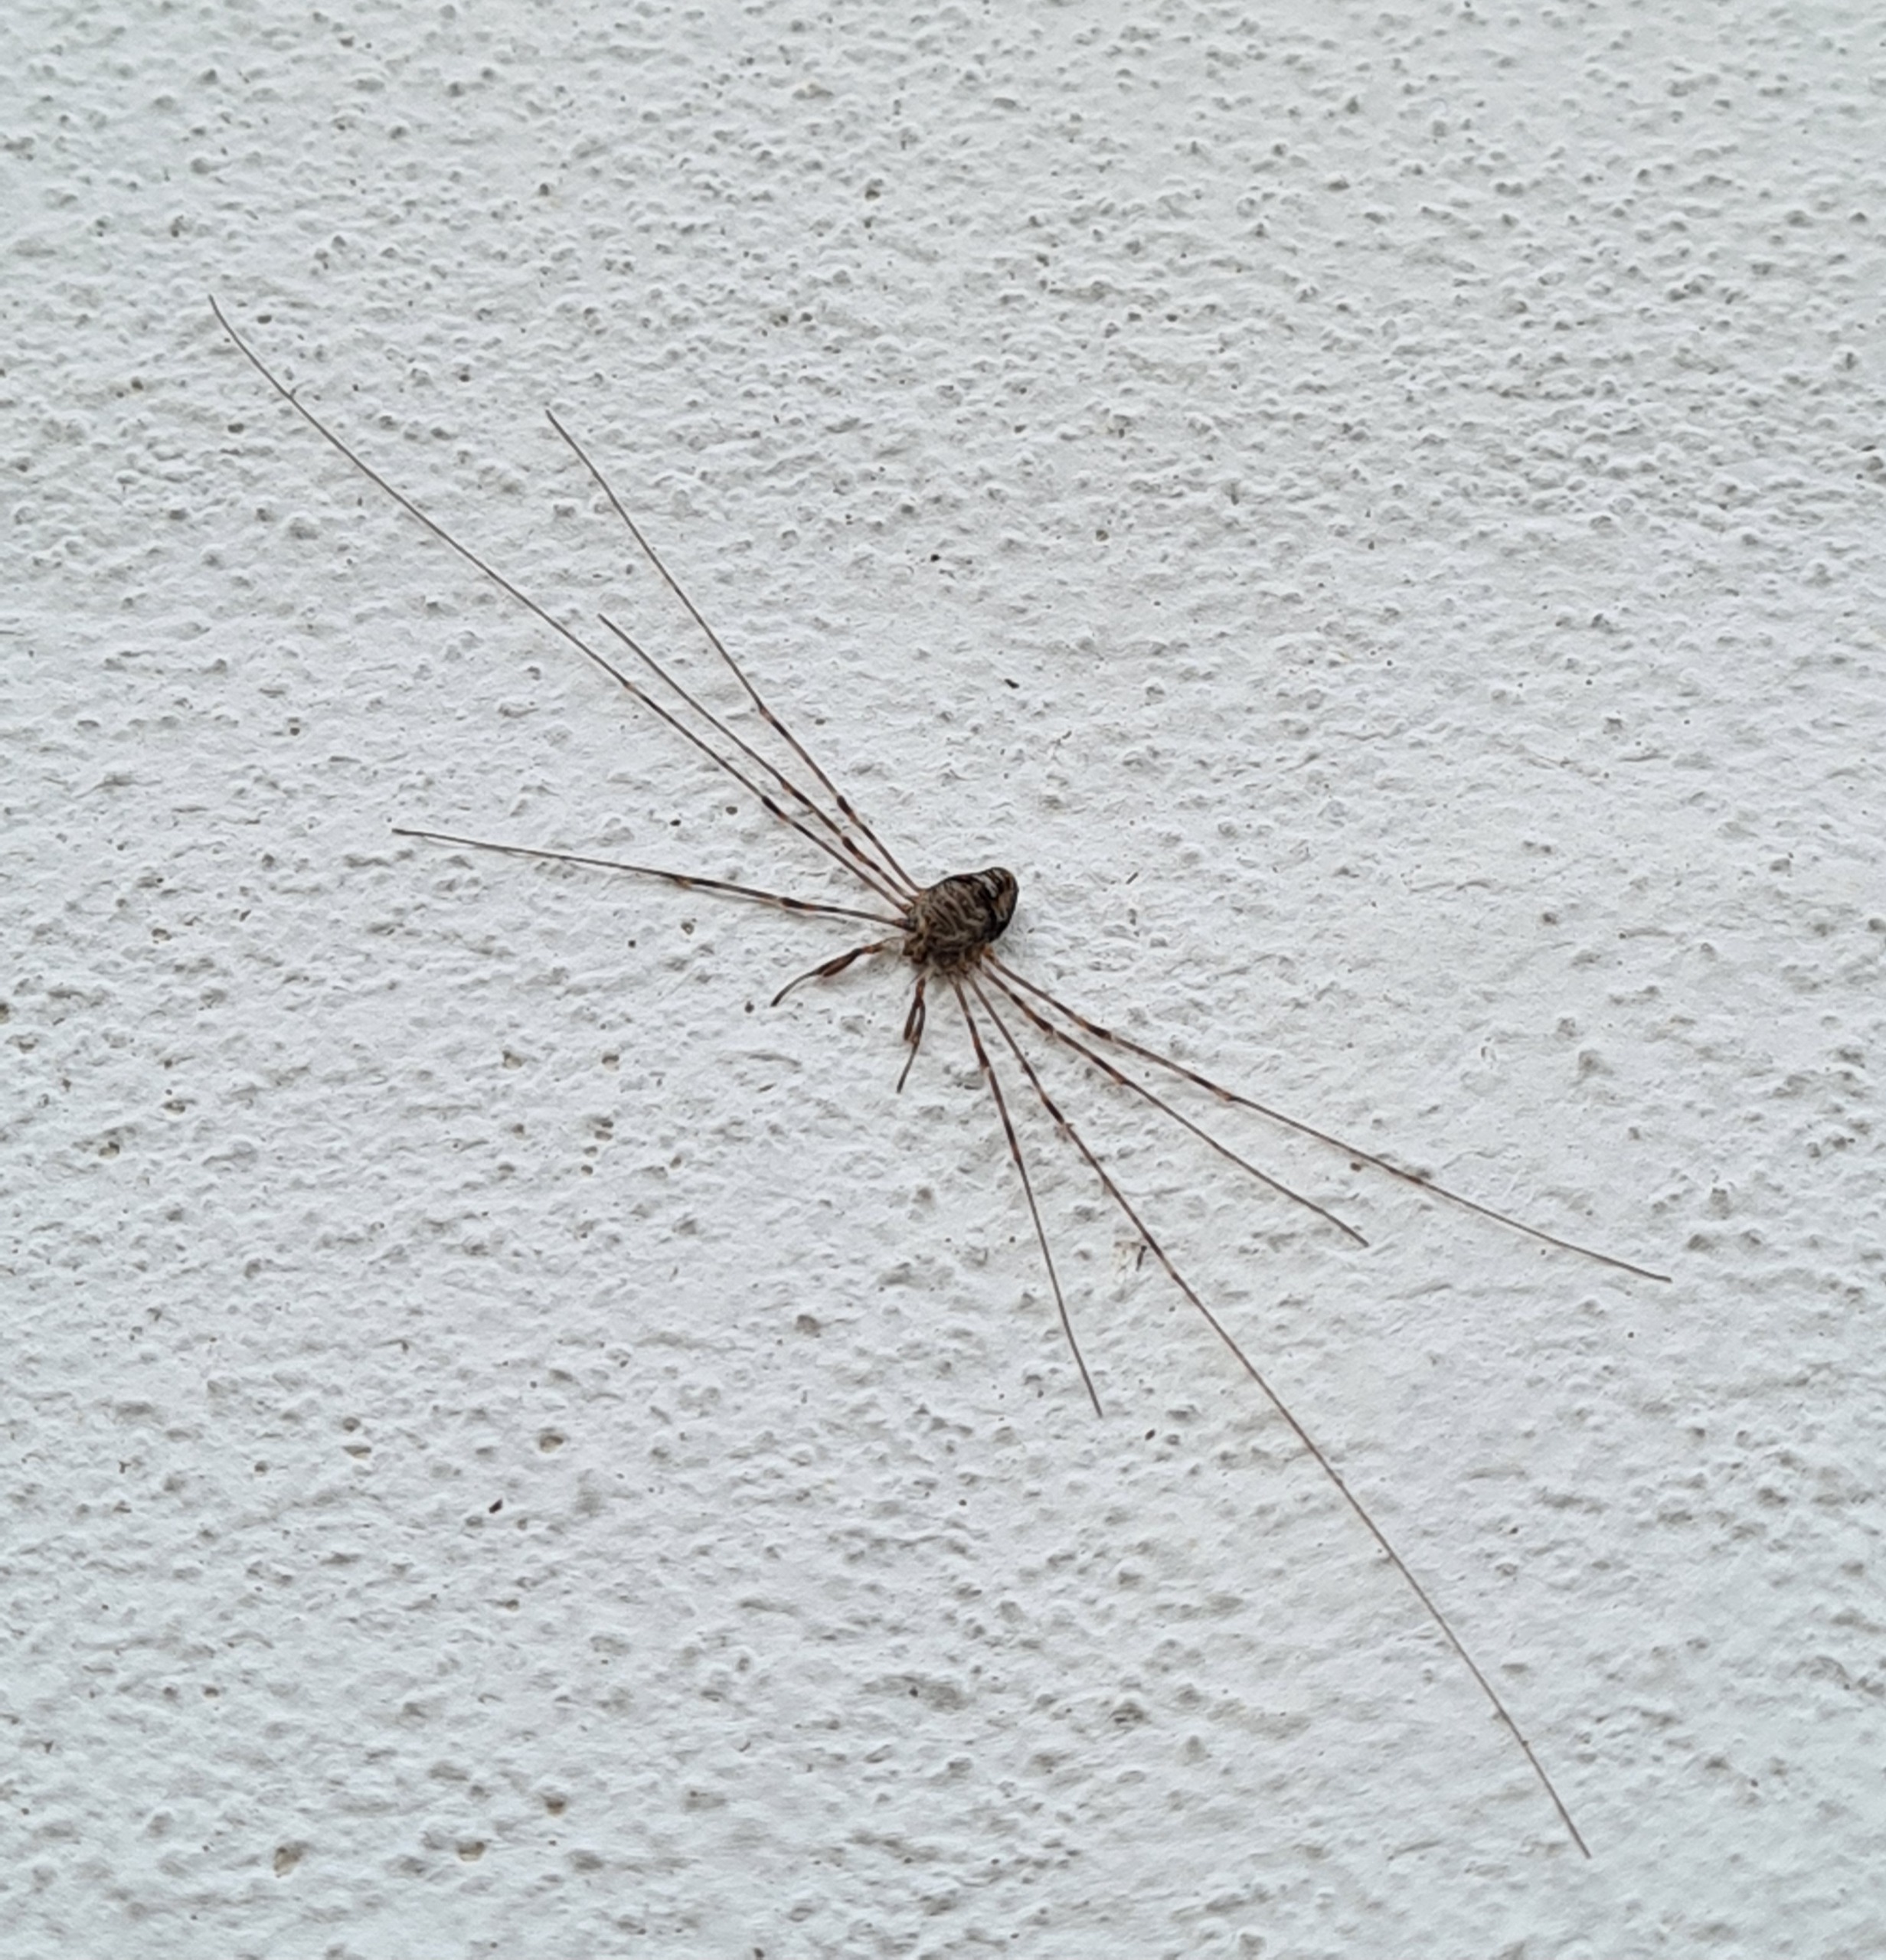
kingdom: Animalia
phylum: Arthropoda
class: Arachnida
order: Opiliones
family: Phalangiidae
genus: Dicranopalpus
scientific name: Dicranopalpus ramosus
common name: Gaffelmejer
